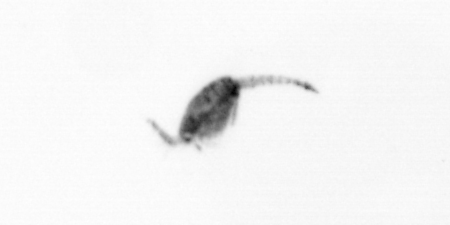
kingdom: Animalia
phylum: Arthropoda
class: Copepoda
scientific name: Copepoda
